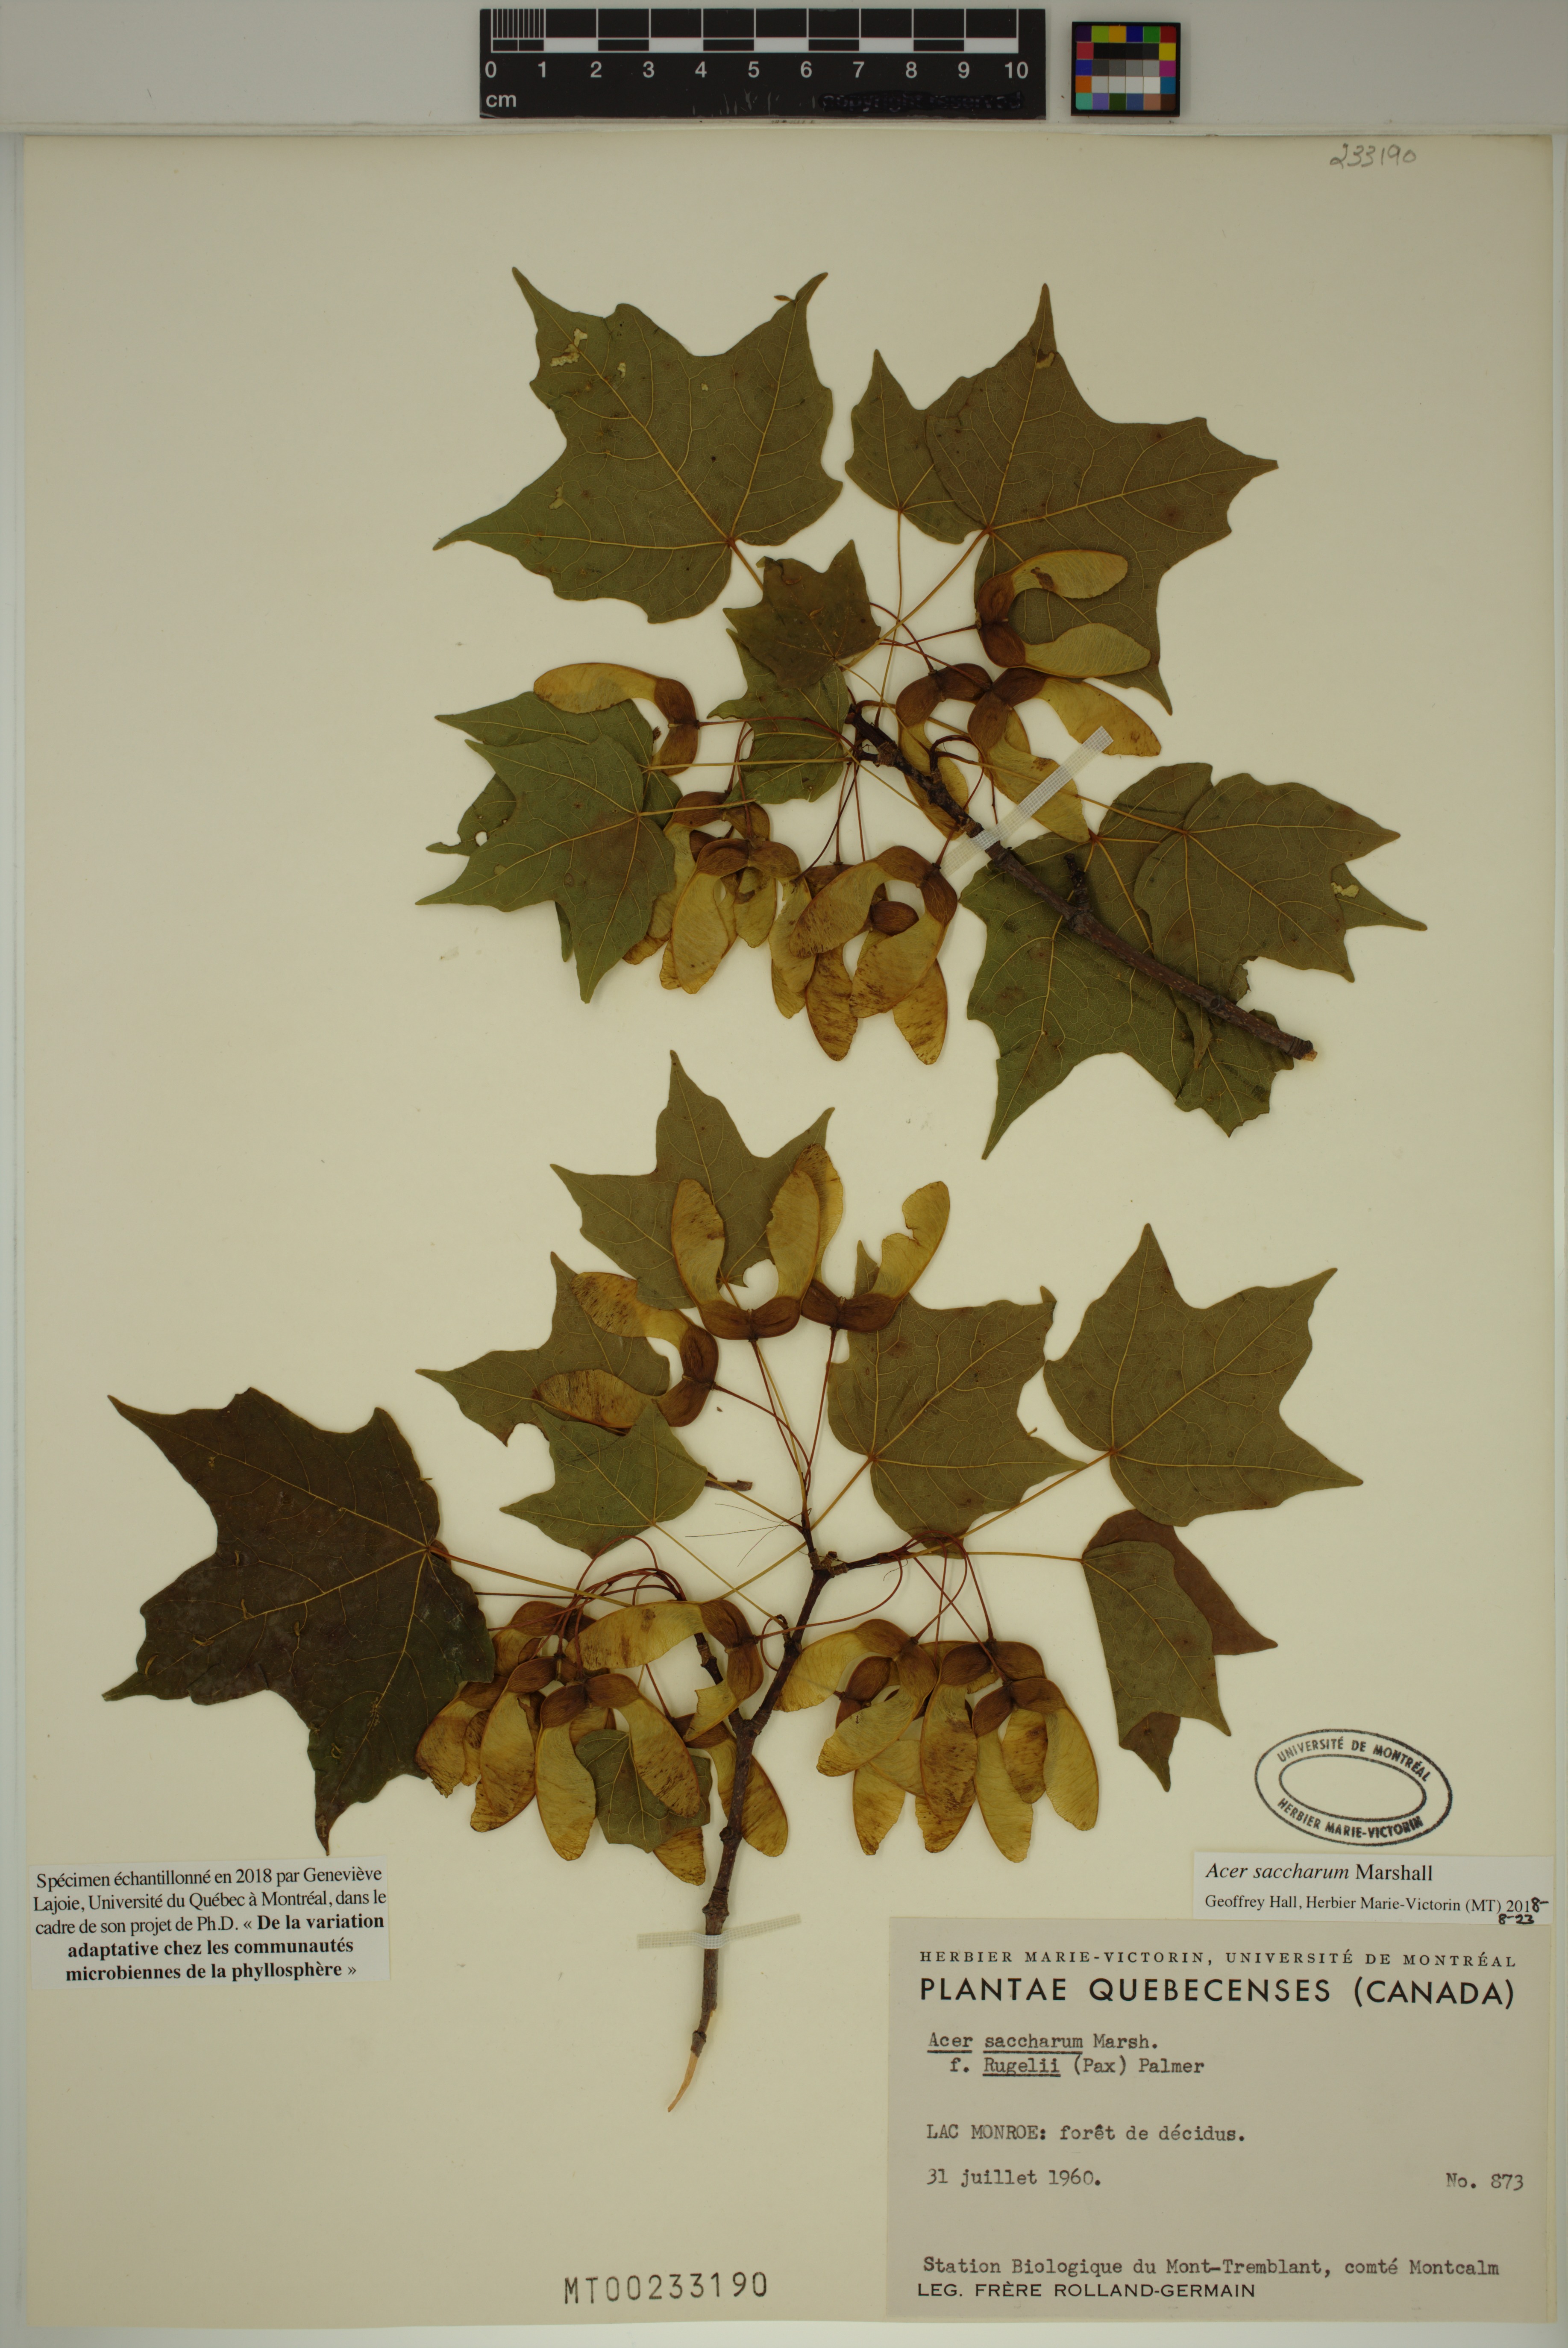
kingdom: Plantae
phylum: Tracheophyta
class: Magnoliopsida
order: Sapindales
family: Sapindaceae
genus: Acer
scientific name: Acer saccharum
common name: Sugar maple
